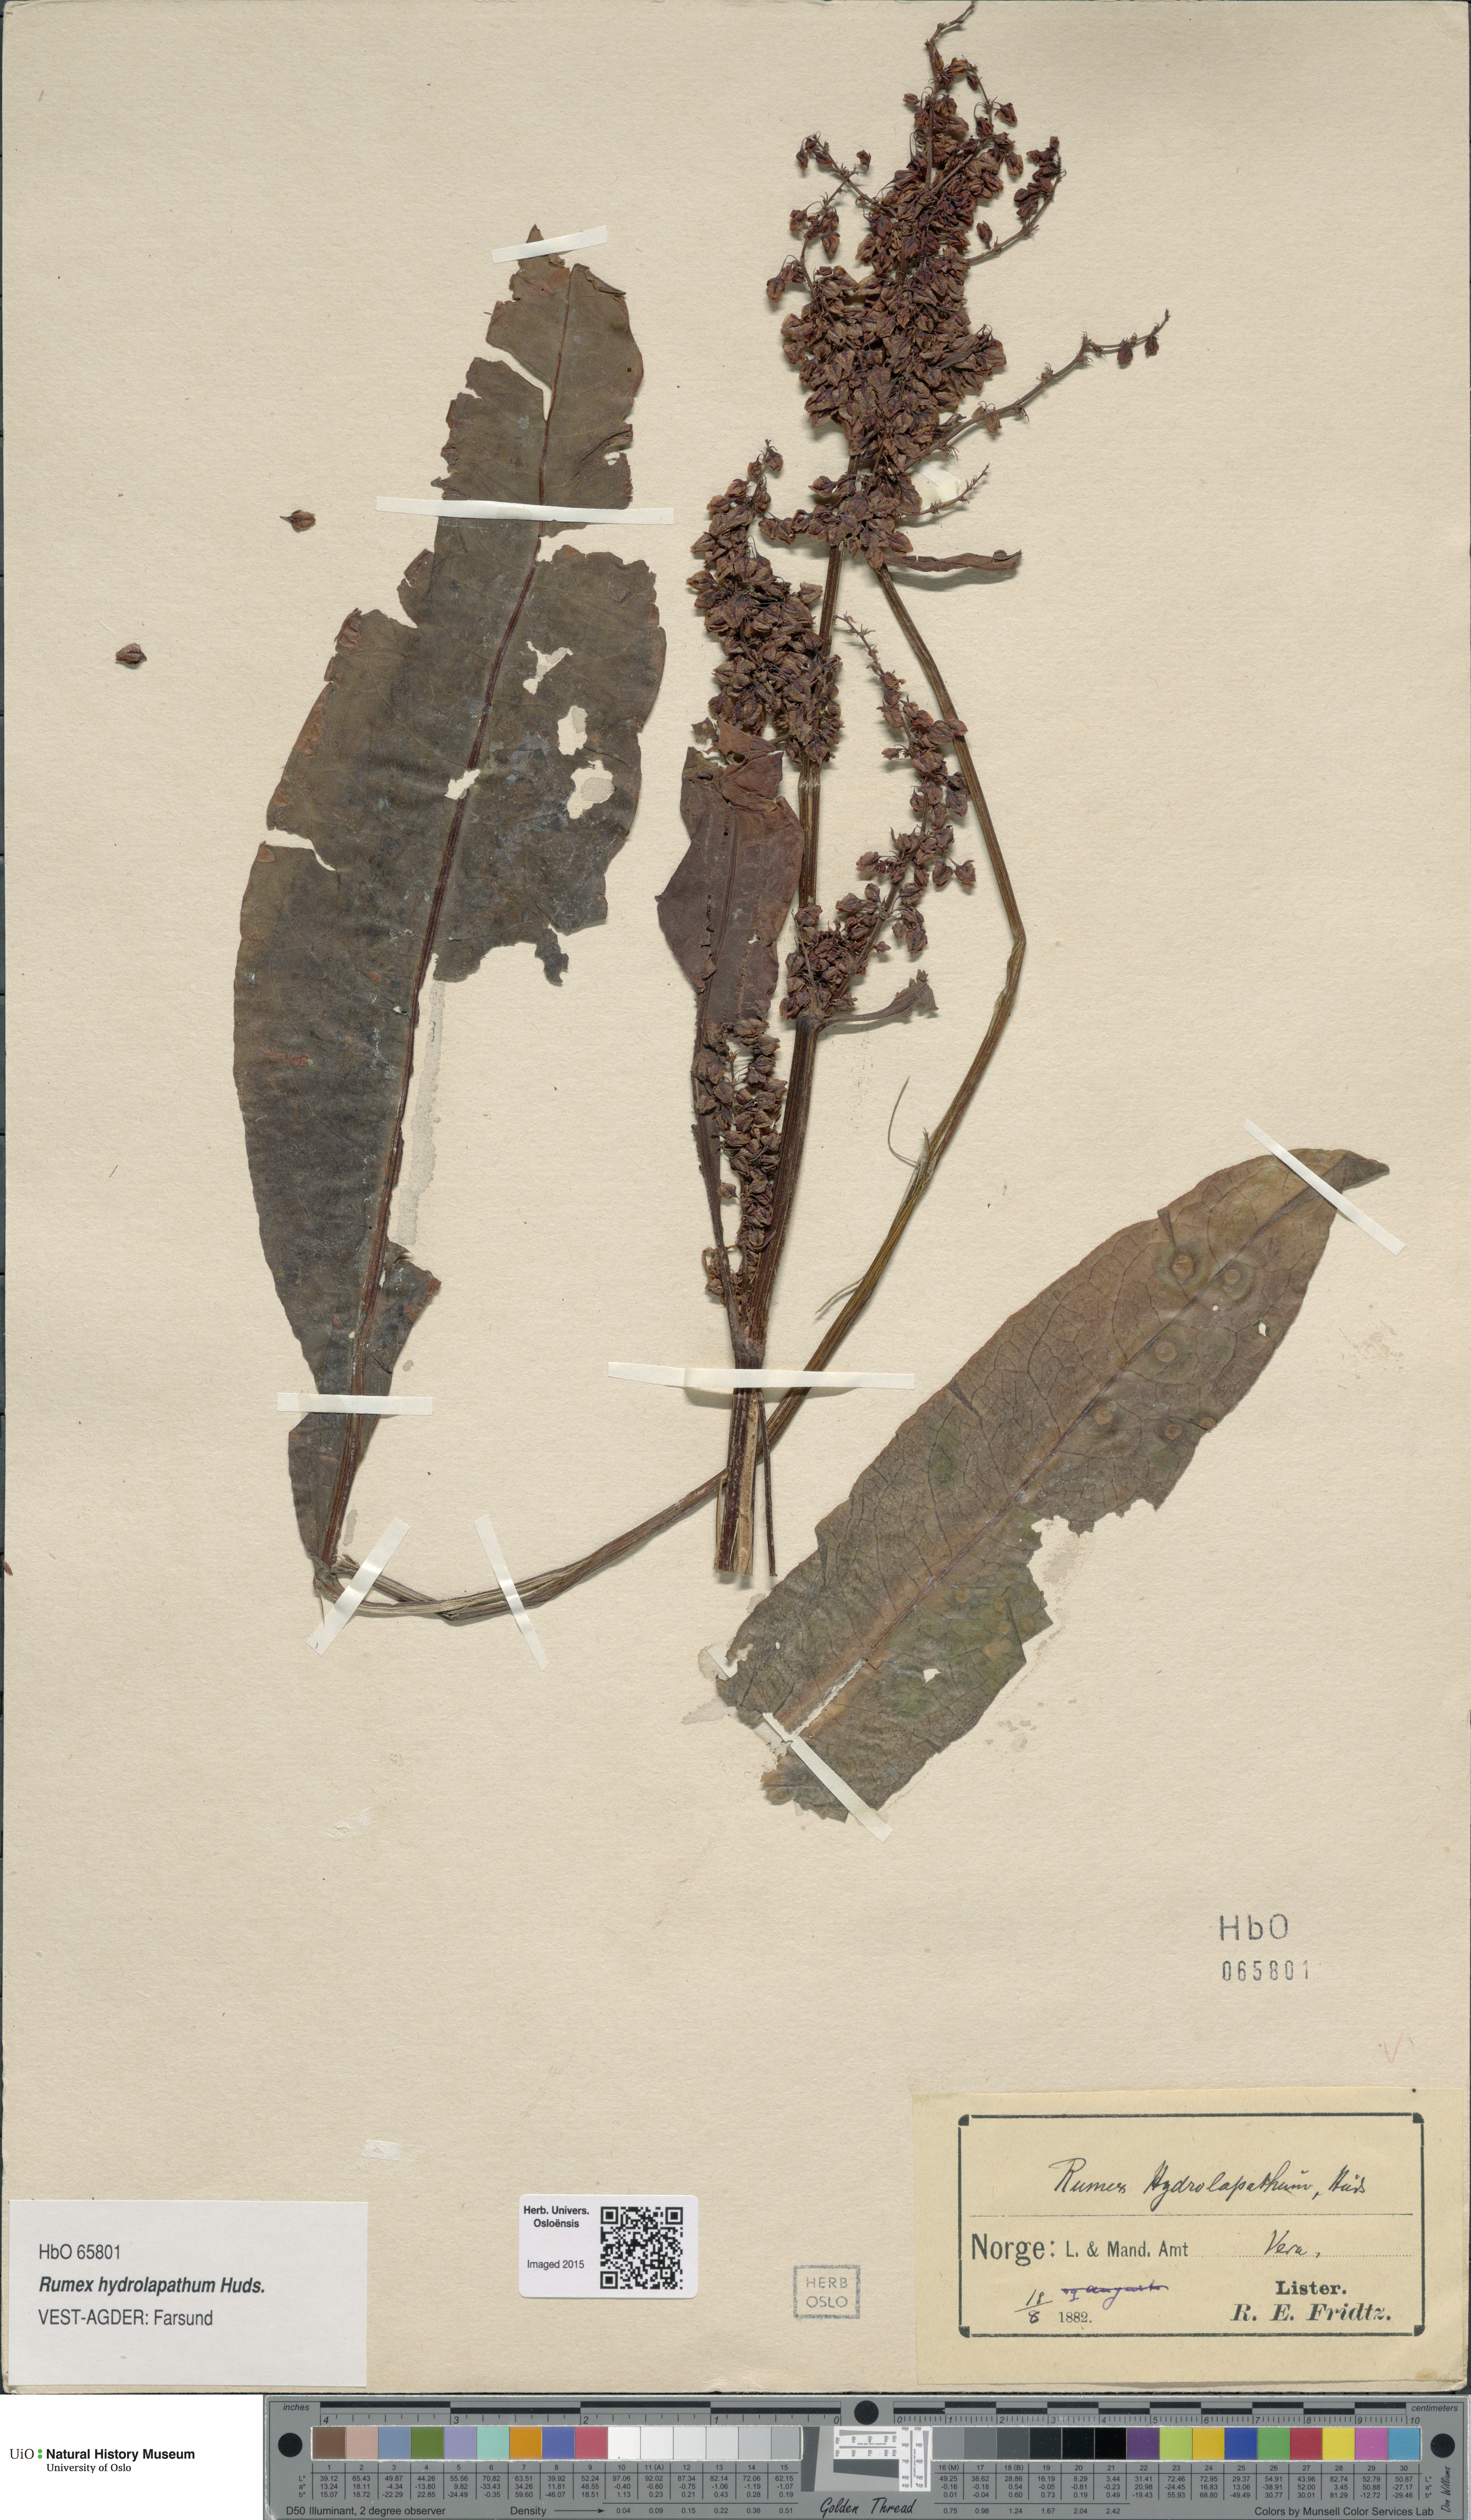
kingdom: Plantae
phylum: Tracheophyta
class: Magnoliopsida
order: Caryophyllales
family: Polygonaceae
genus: Rumex
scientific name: Rumex hydrolapathum
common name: Water dock
